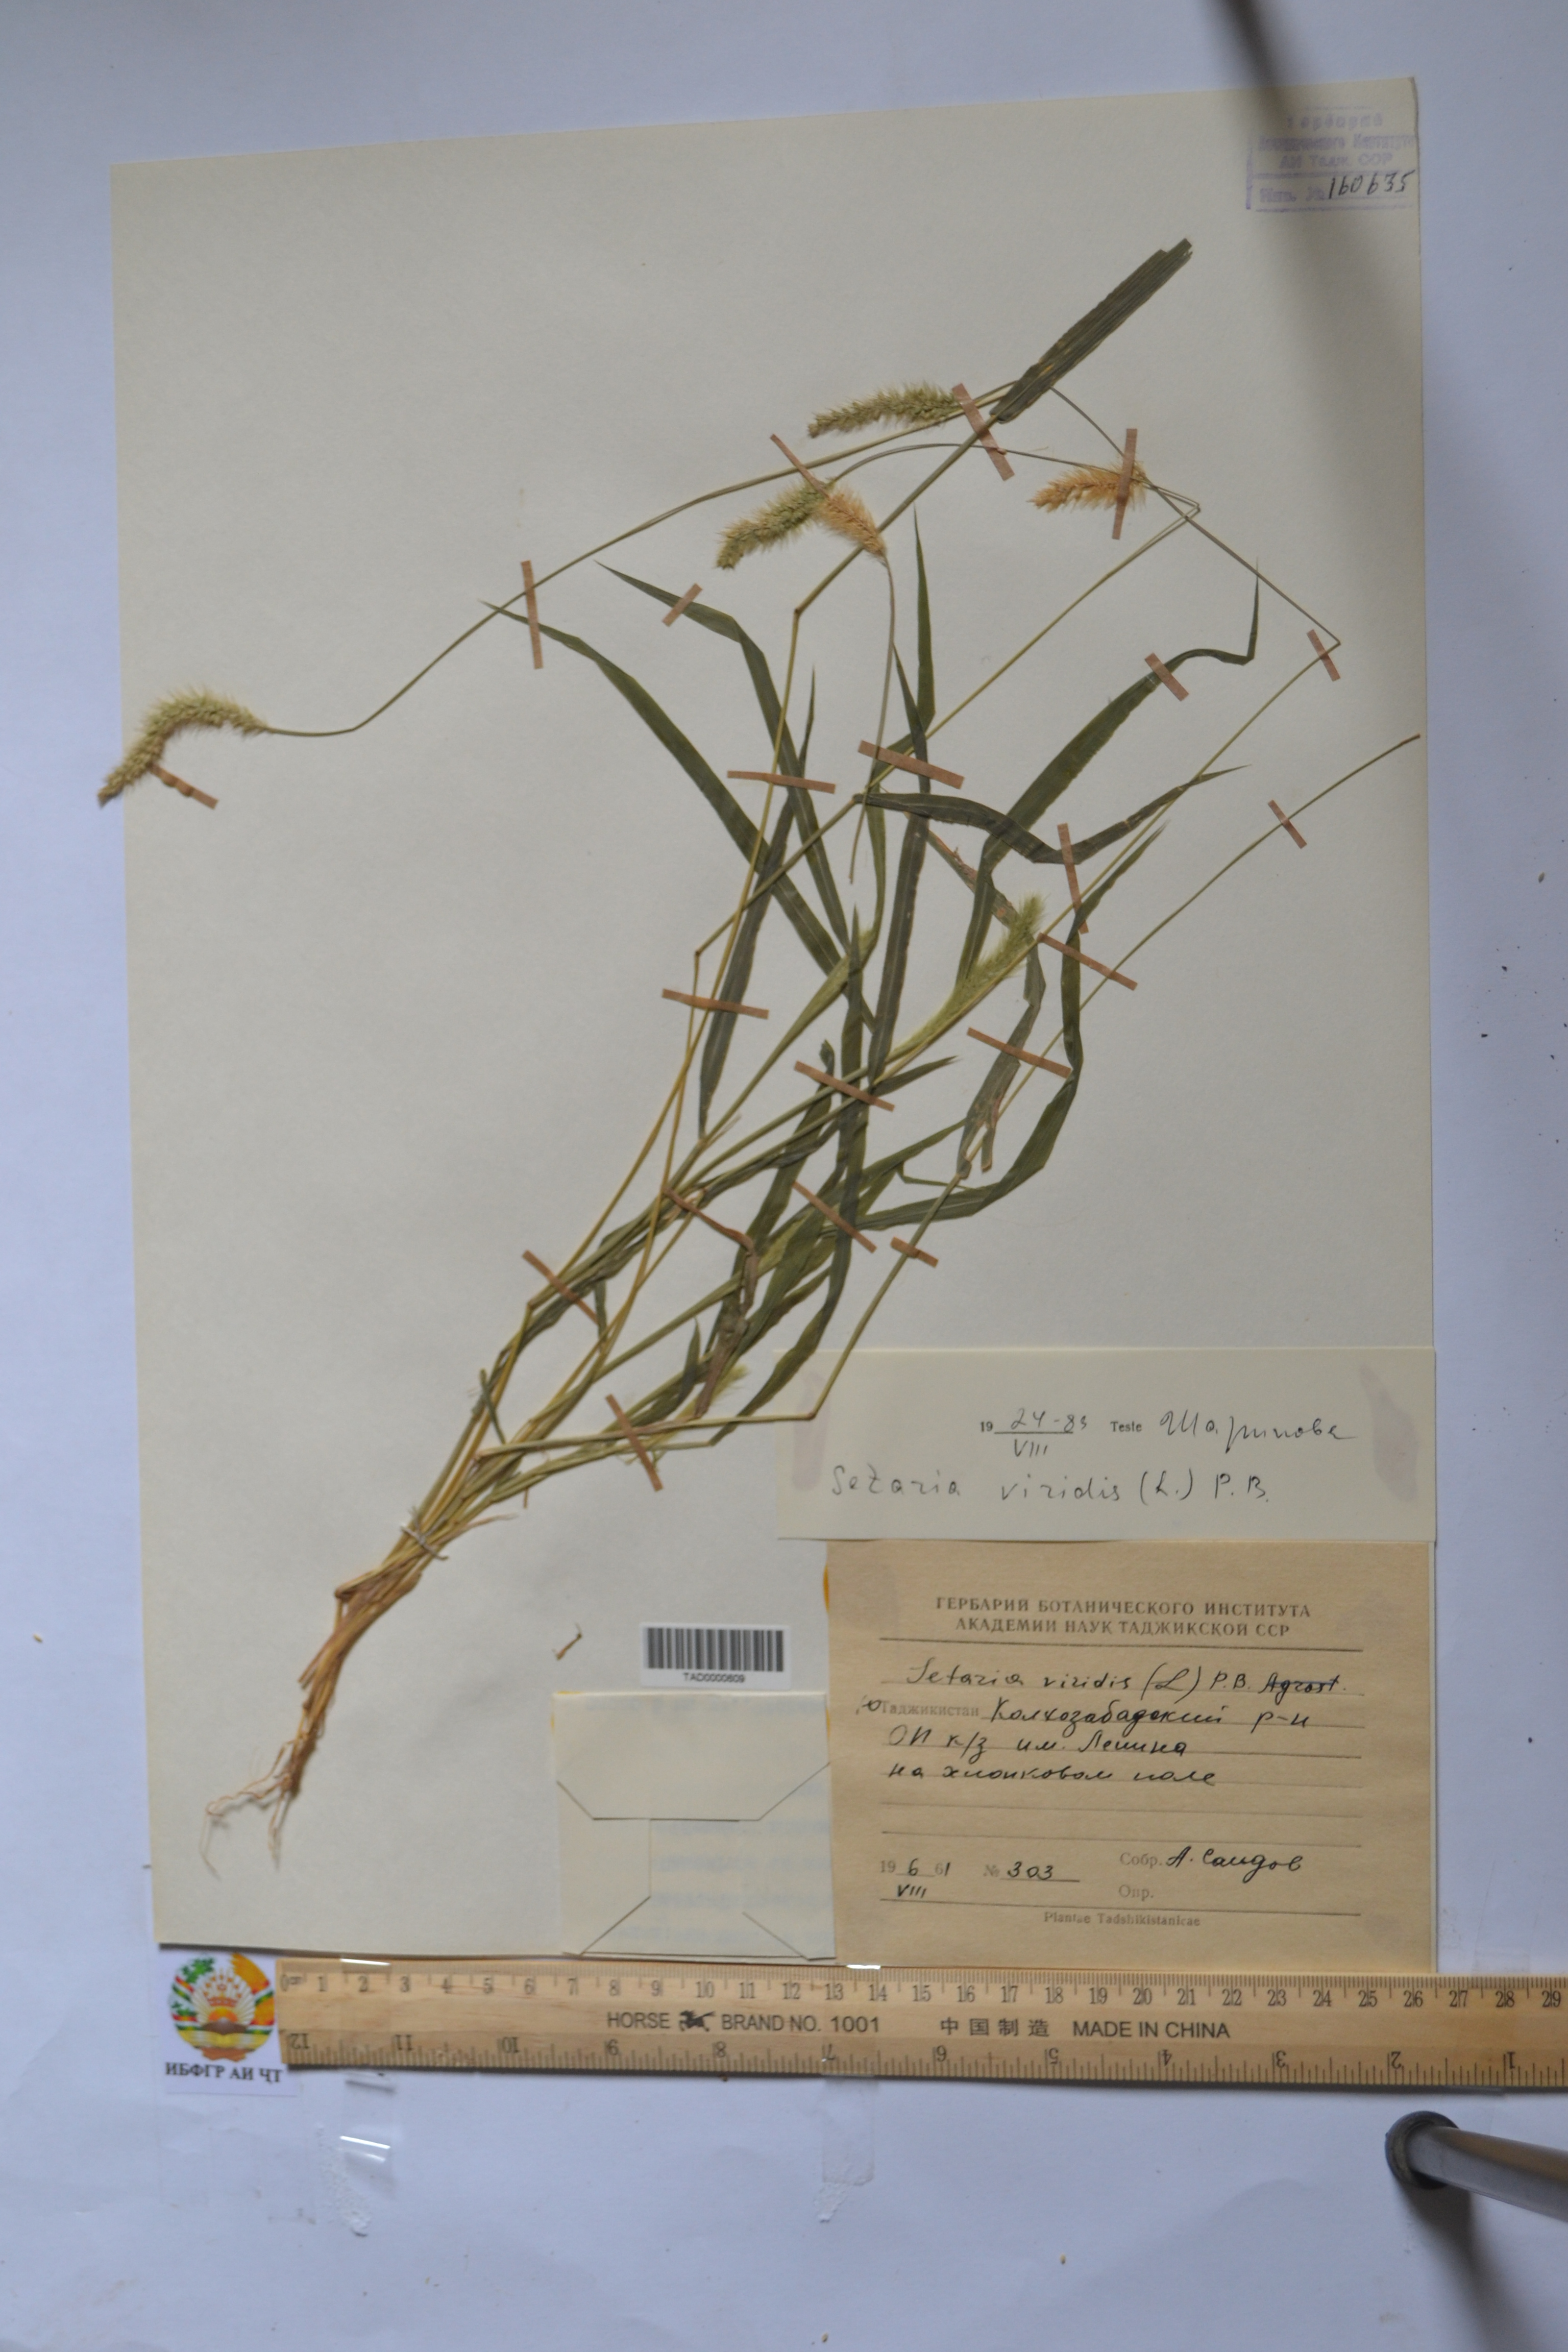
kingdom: Plantae
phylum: Tracheophyta
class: Liliopsida
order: Poales
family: Poaceae
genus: Setaria
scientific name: Setaria viridis
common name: Green bristlegrass
